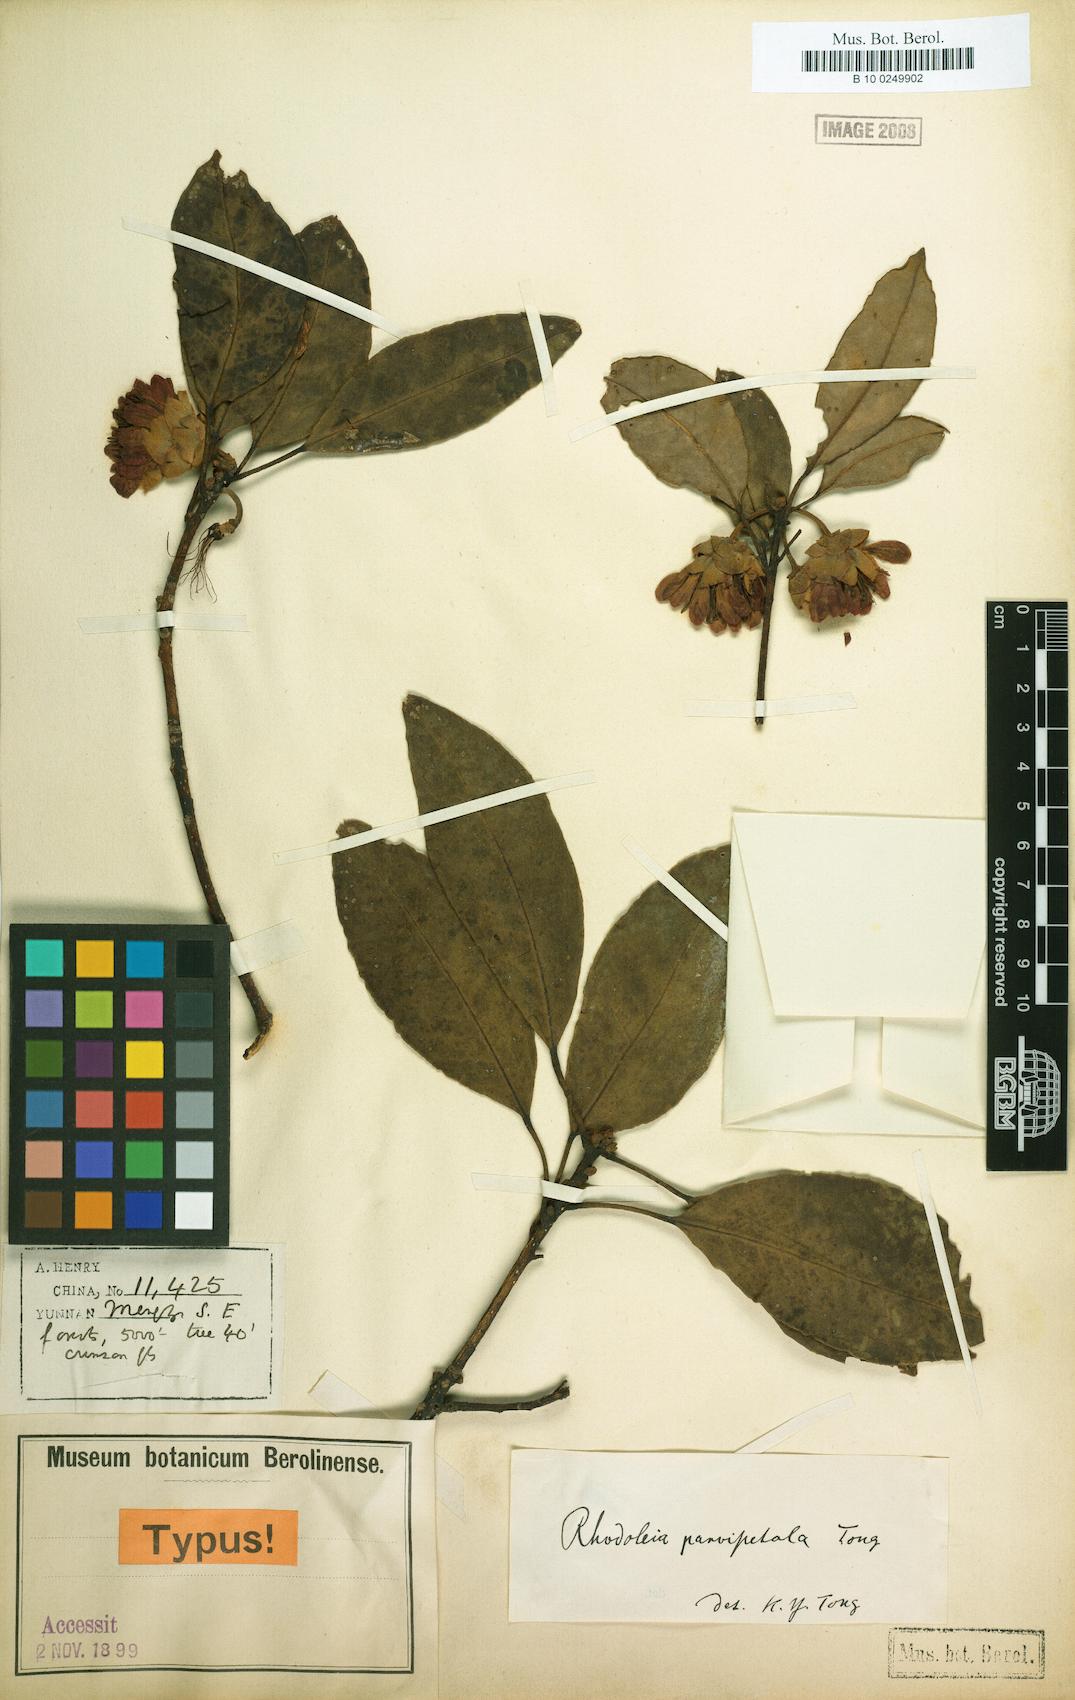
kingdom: Plantae
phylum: Tracheophyta
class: Magnoliopsida
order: Saxifragales
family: Hamamelidaceae
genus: Rhodoleia
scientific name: Rhodoleia parvipetala
